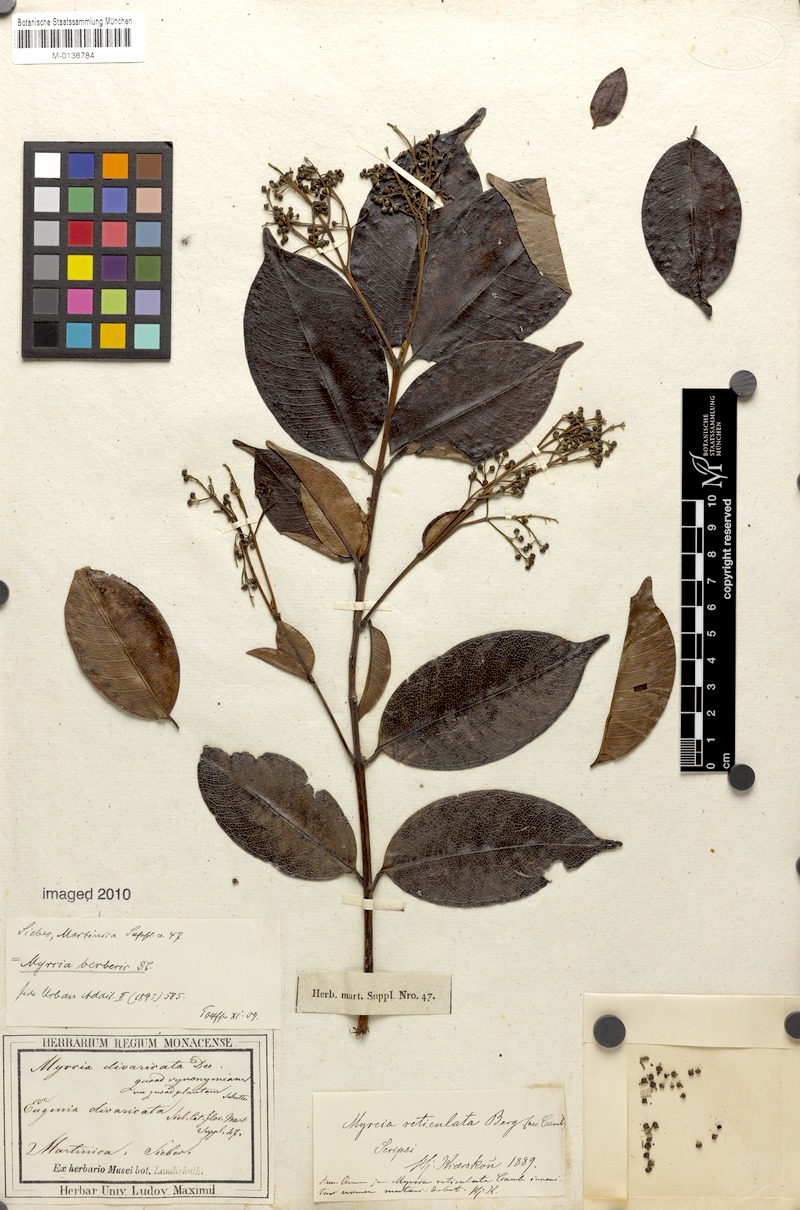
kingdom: Plantae
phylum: Tracheophyta
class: Magnoliopsida
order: Myrtales
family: Myrtaceae
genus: Myrcia
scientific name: Myrcia splendens
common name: Surinam cherry
